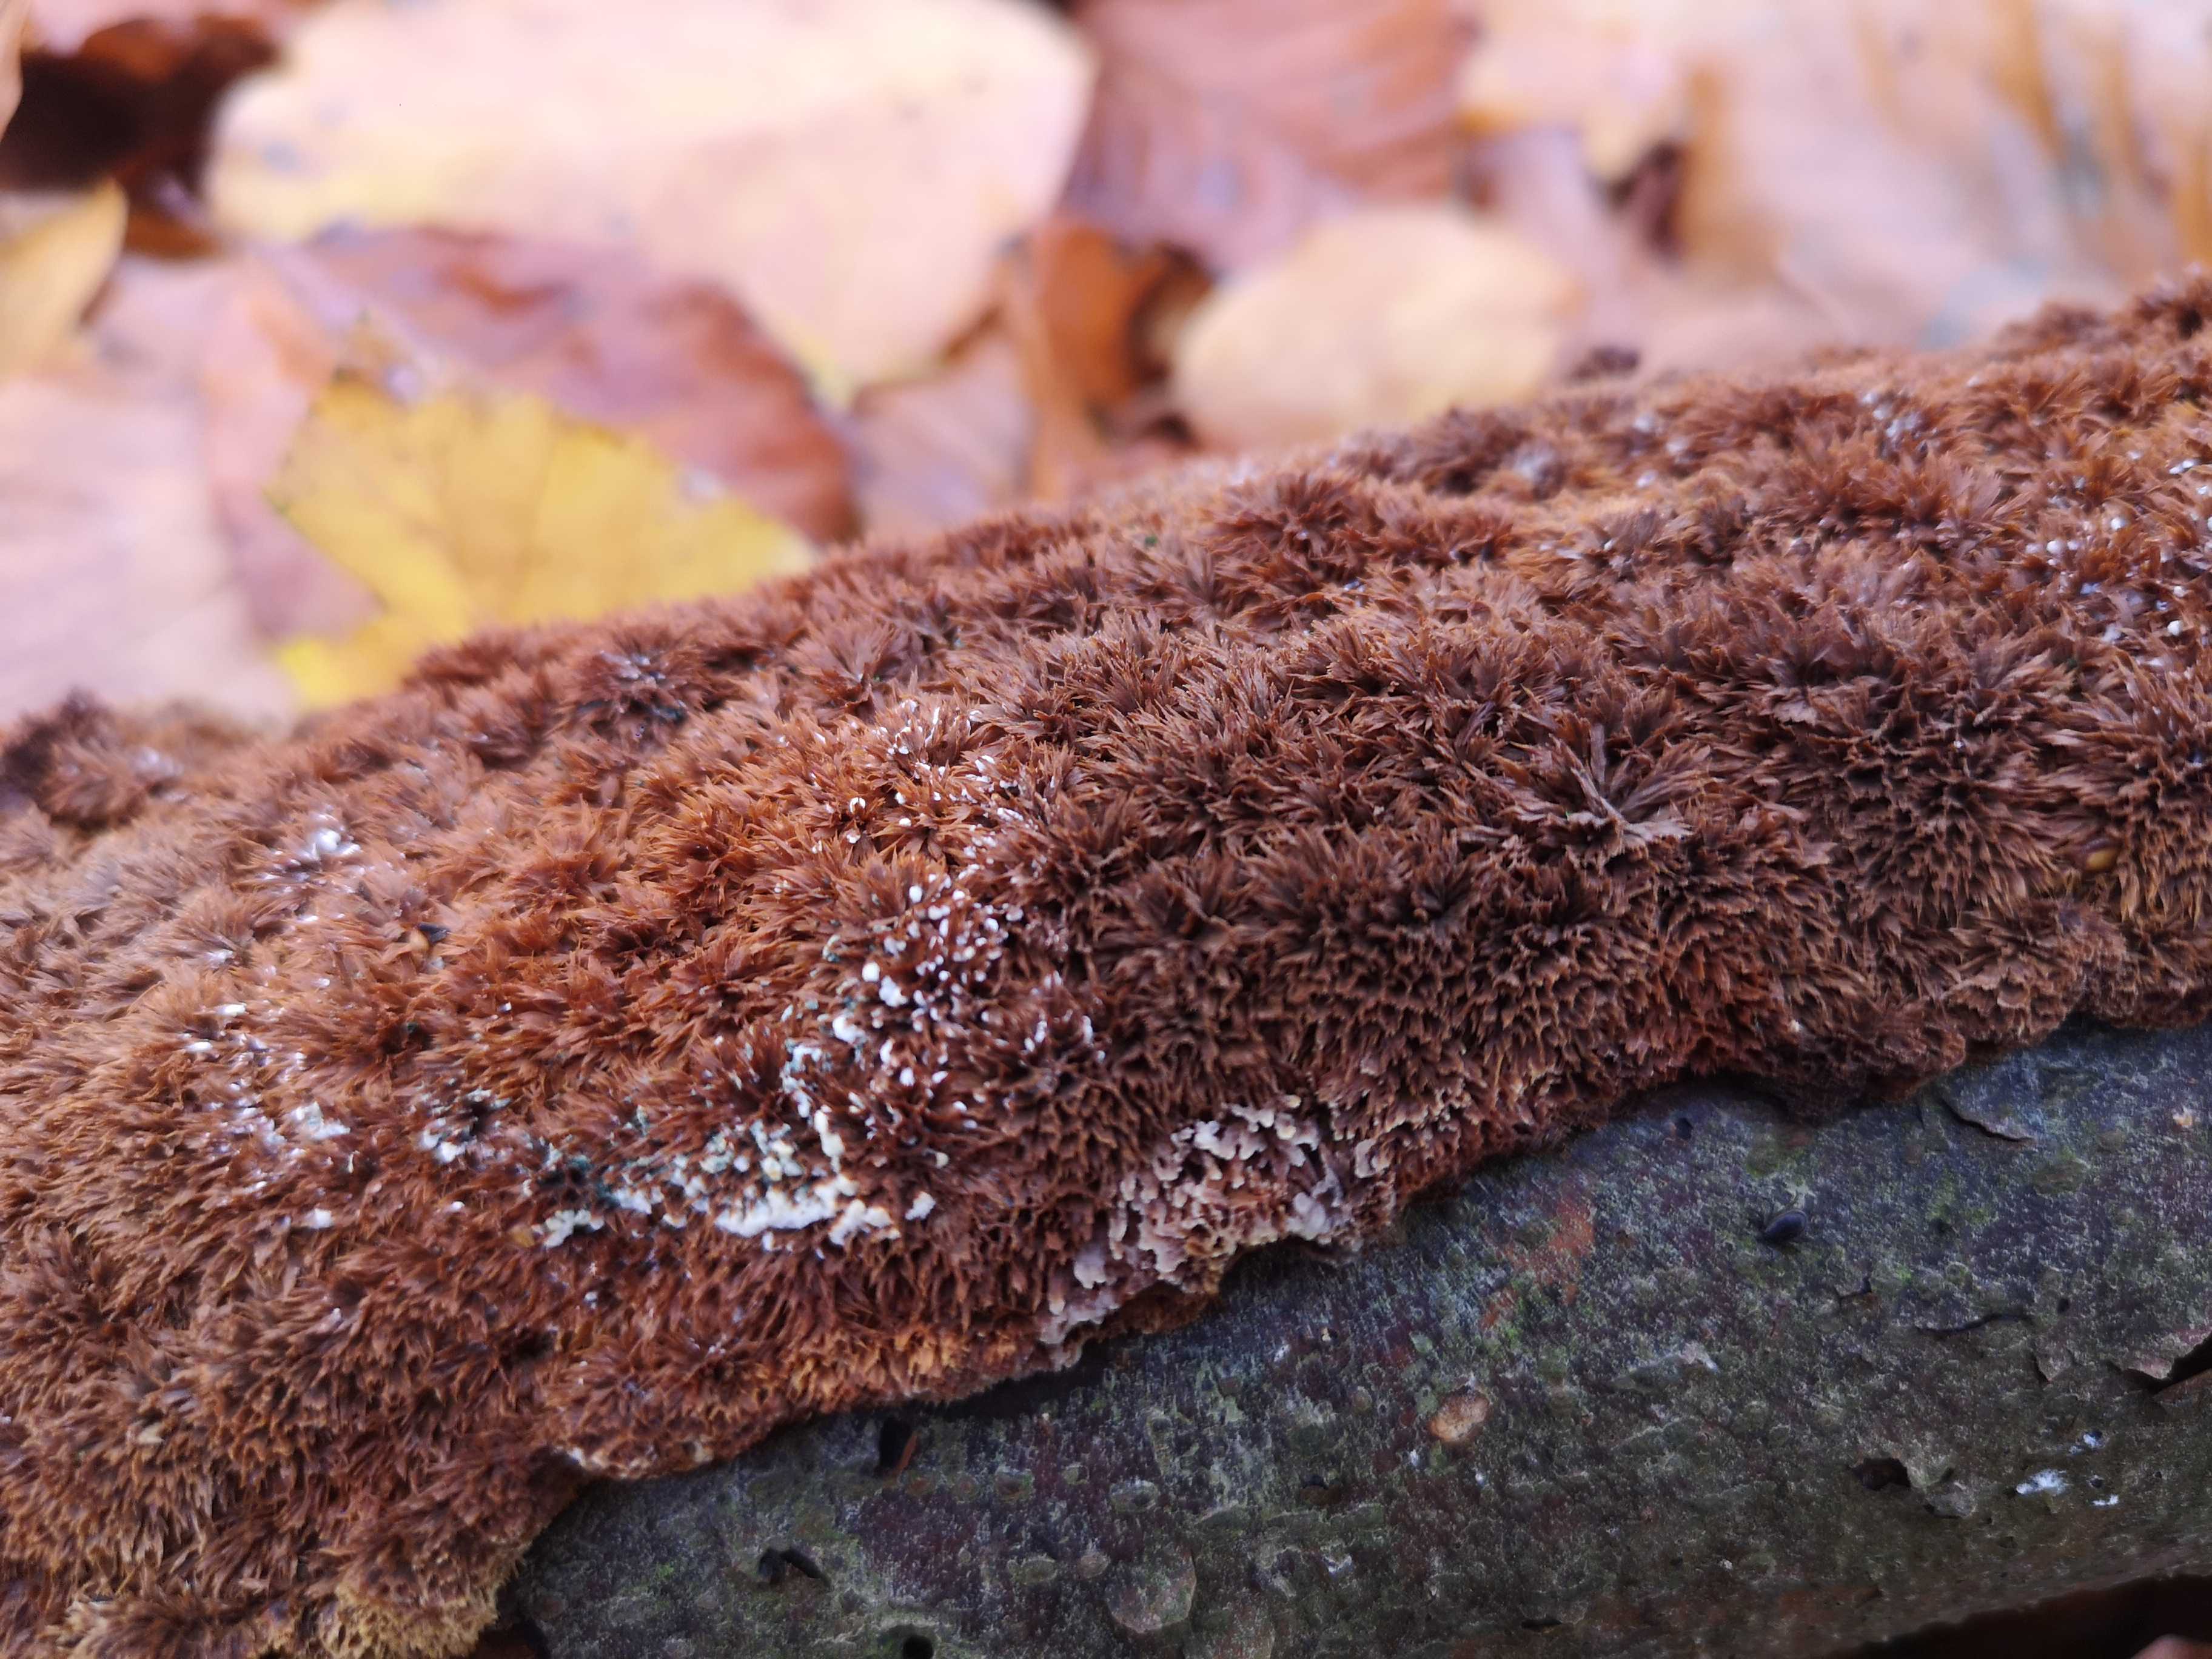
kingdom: Fungi
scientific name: Fungi
